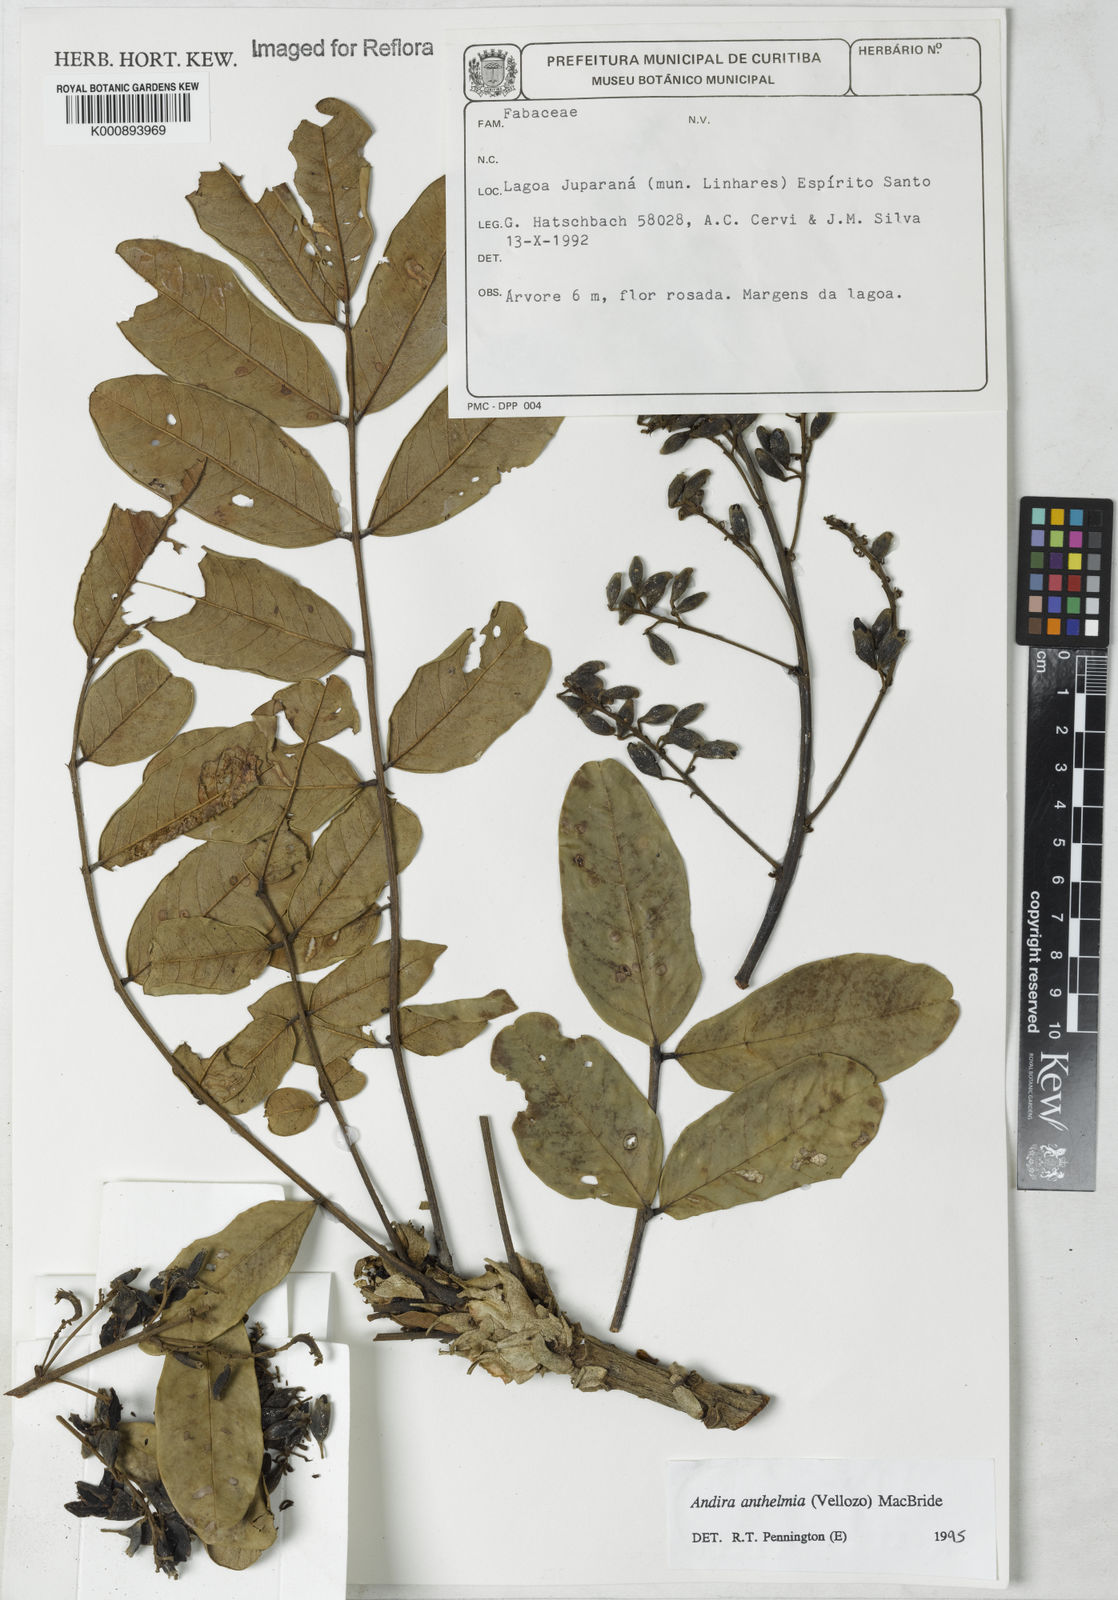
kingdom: Plantae
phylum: Tracheophyta
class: Magnoliopsida
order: Fabales
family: Fabaceae
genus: Andira
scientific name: Andira anthelmia
